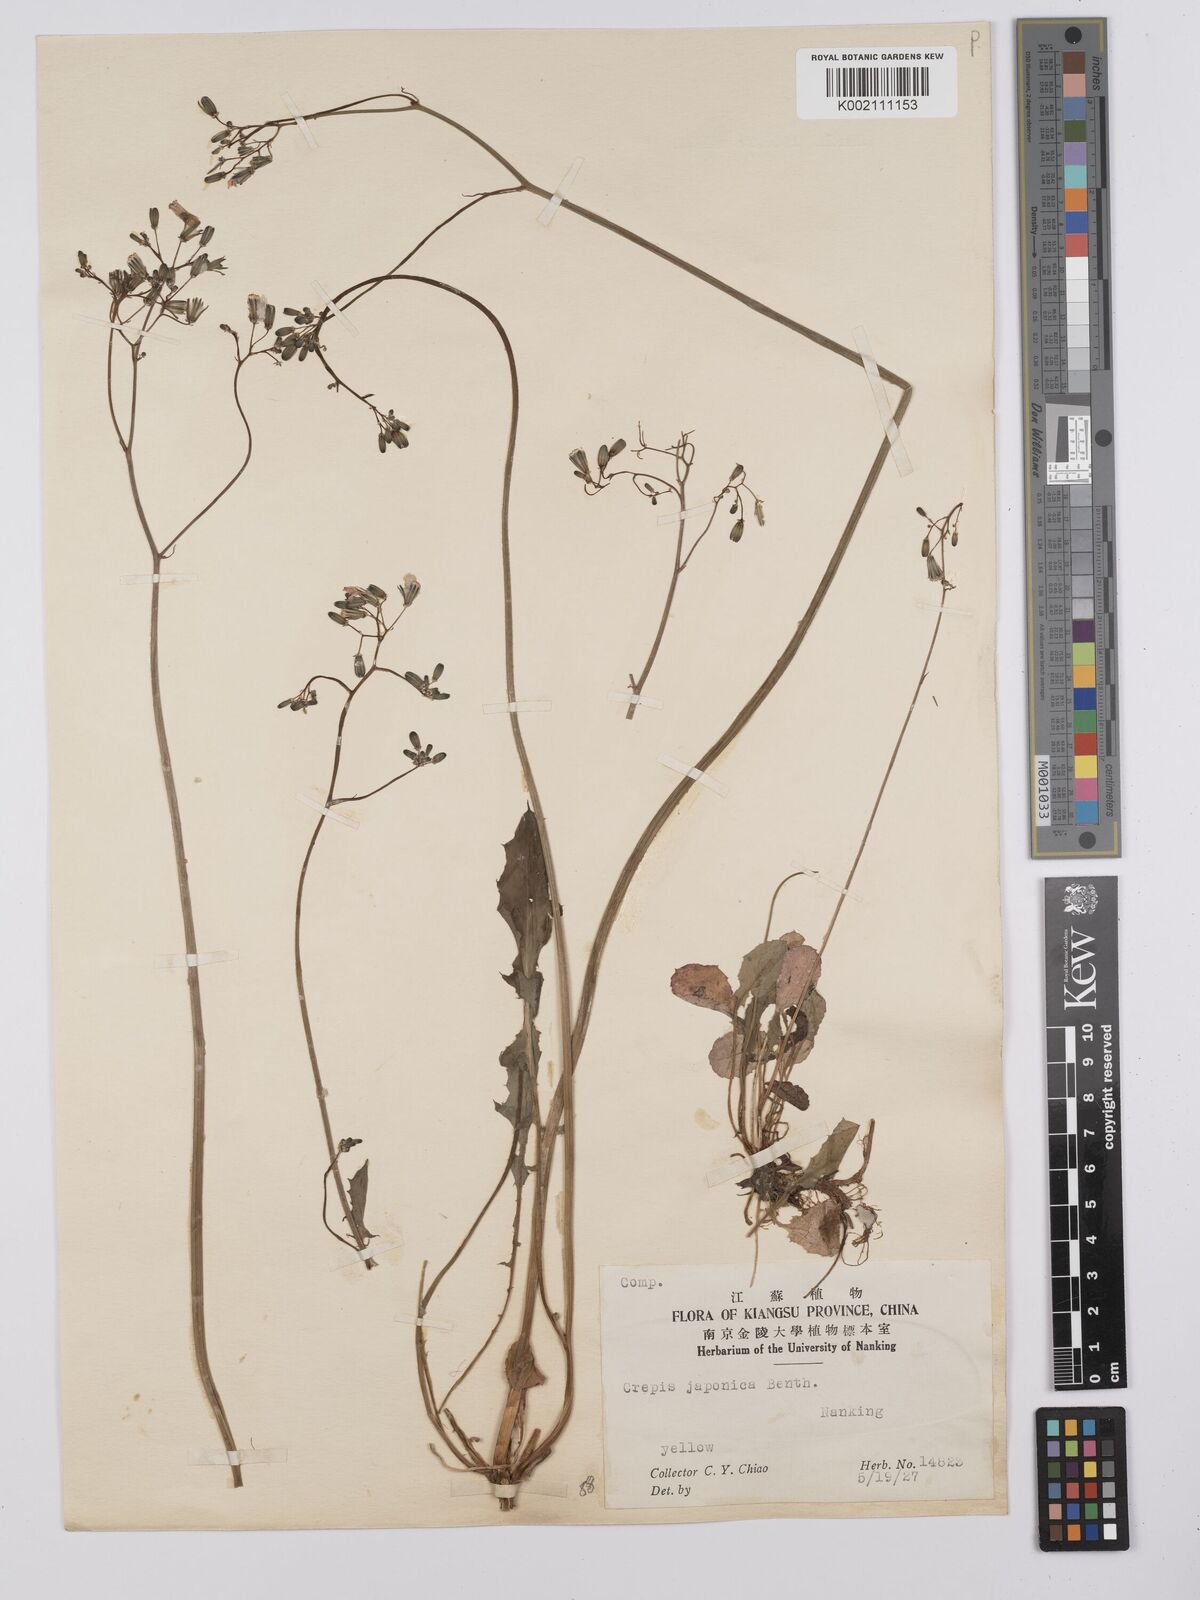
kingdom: Plantae
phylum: Tracheophyta
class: Magnoliopsida
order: Asterales
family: Asteraceae
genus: Youngia
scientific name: Youngia japonica
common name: Oriental false hawksbeard
